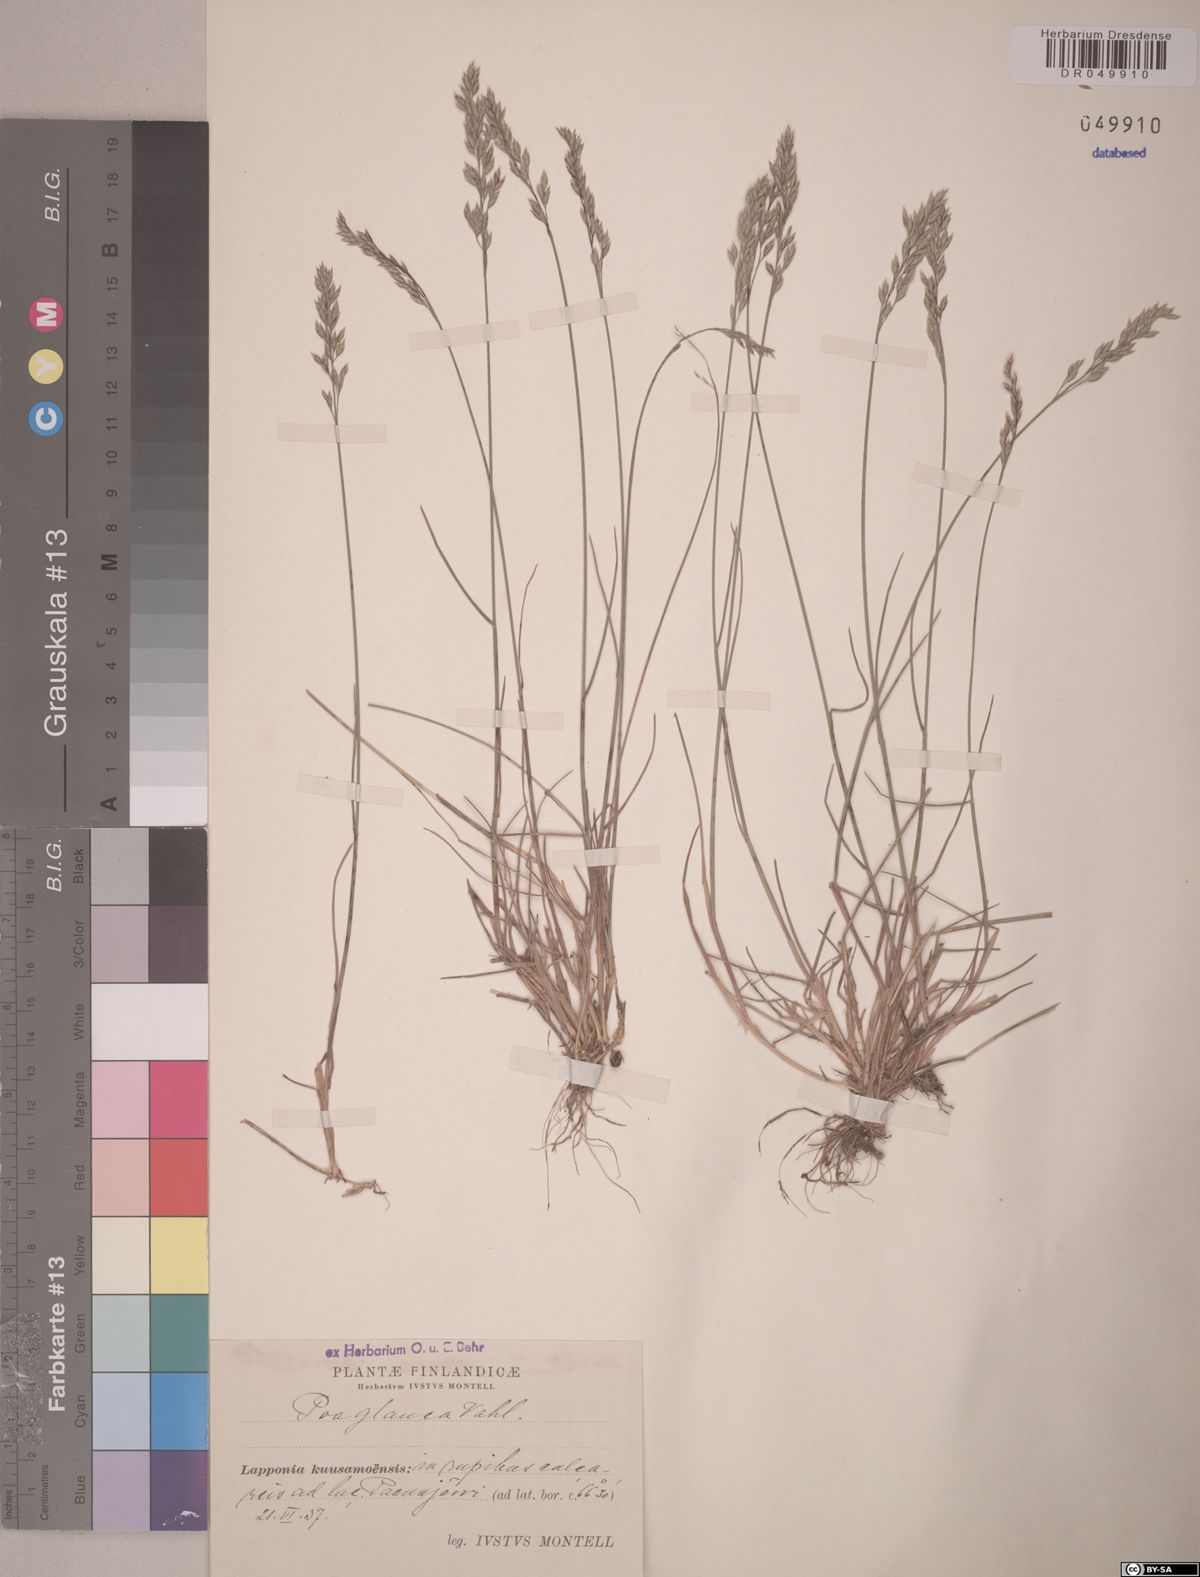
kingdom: Plantae
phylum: Tracheophyta
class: Liliopsida
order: Poales
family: Poaceae
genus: Poa
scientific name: Poa glauca
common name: Glaucous bluegrass
